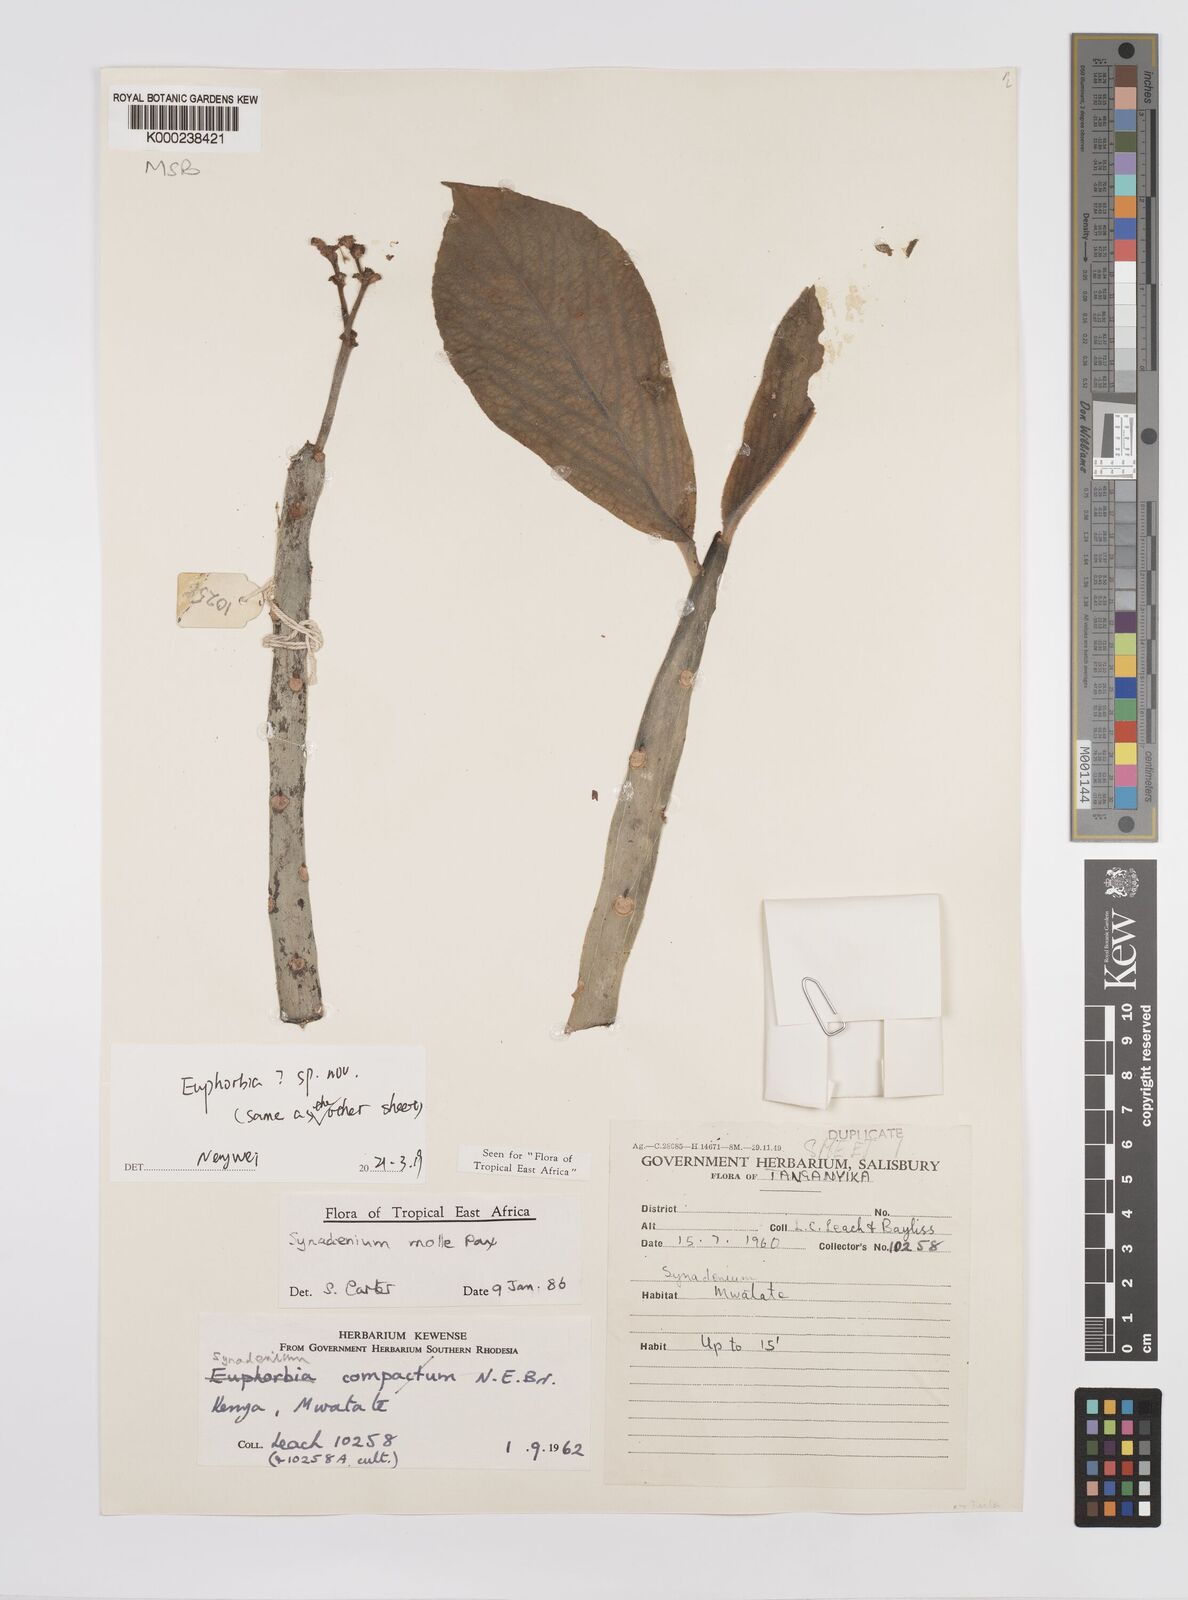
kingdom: Plantae
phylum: Tracheophyta
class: Magnoliopsida
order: Malpighiales
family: Euphorbiaceae
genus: Euphorbia
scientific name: Euphorbia pseudomollis
